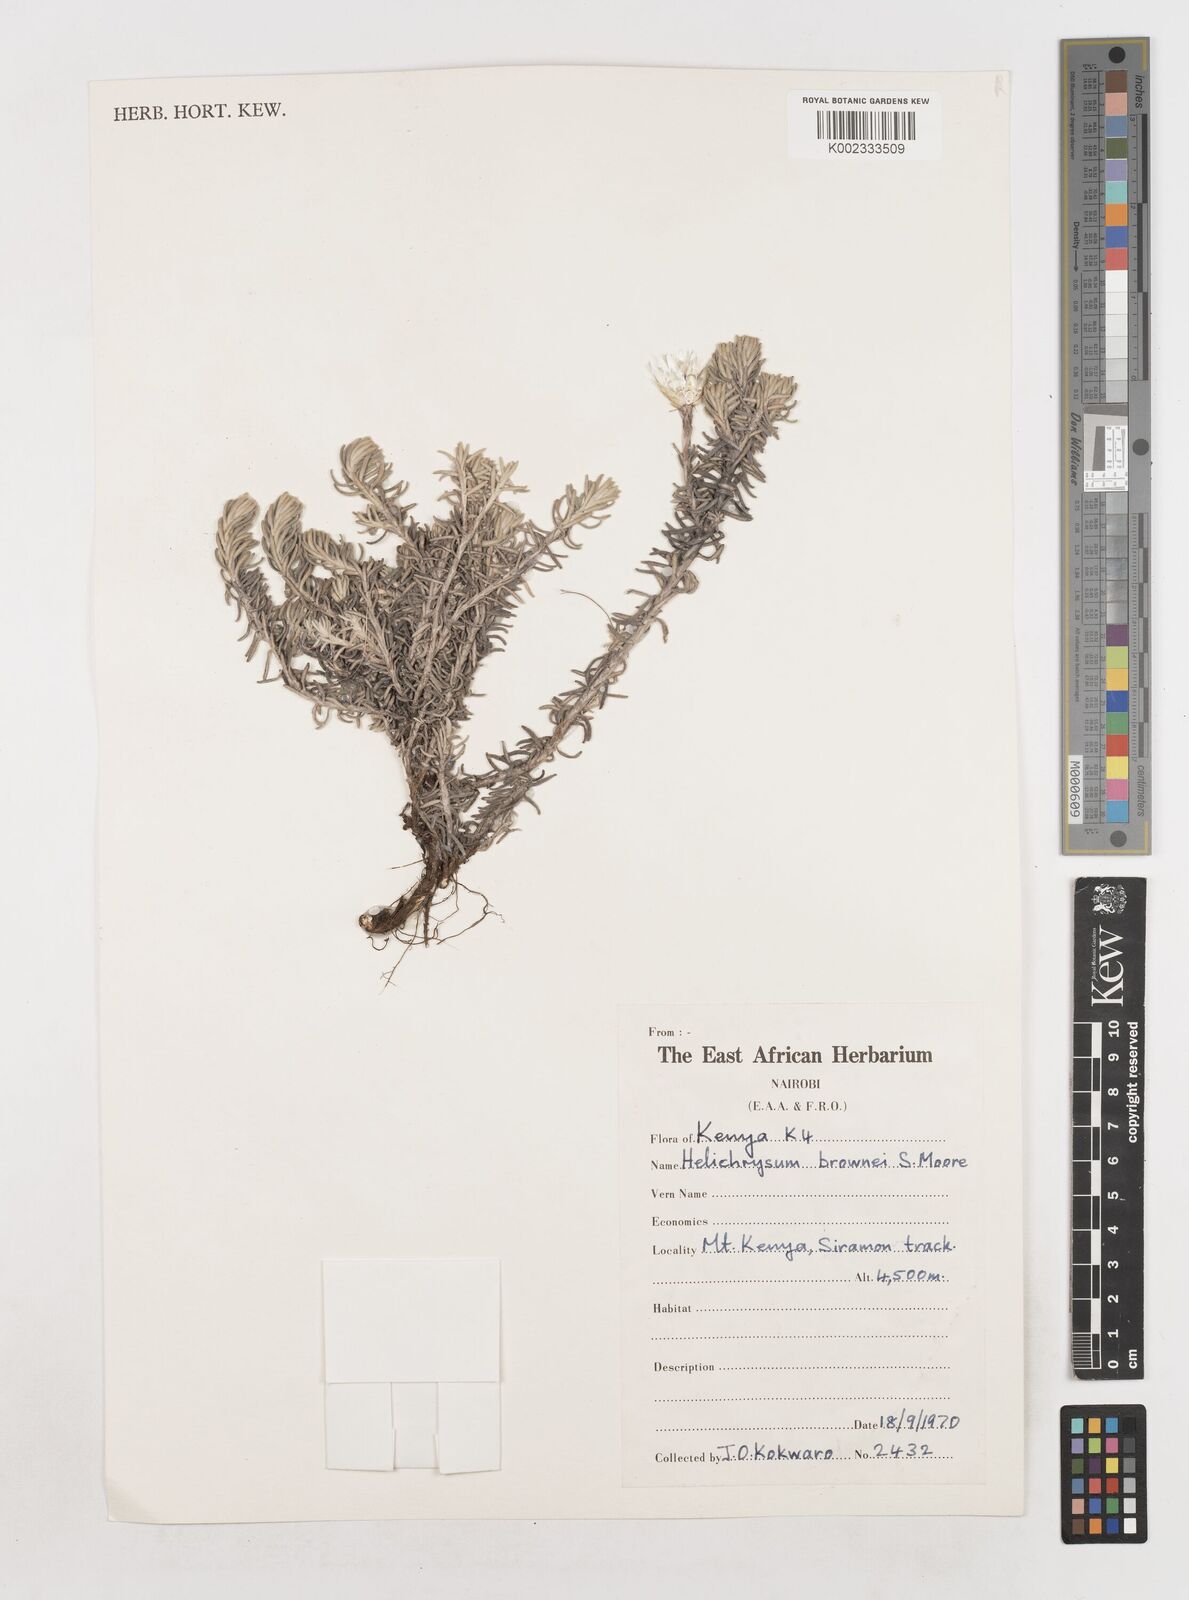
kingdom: Plantae
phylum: Tracheophyta
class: Magnoliopsida
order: Asterales
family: Asteraceae
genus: Helichrysum
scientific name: Helichrysum brownei
